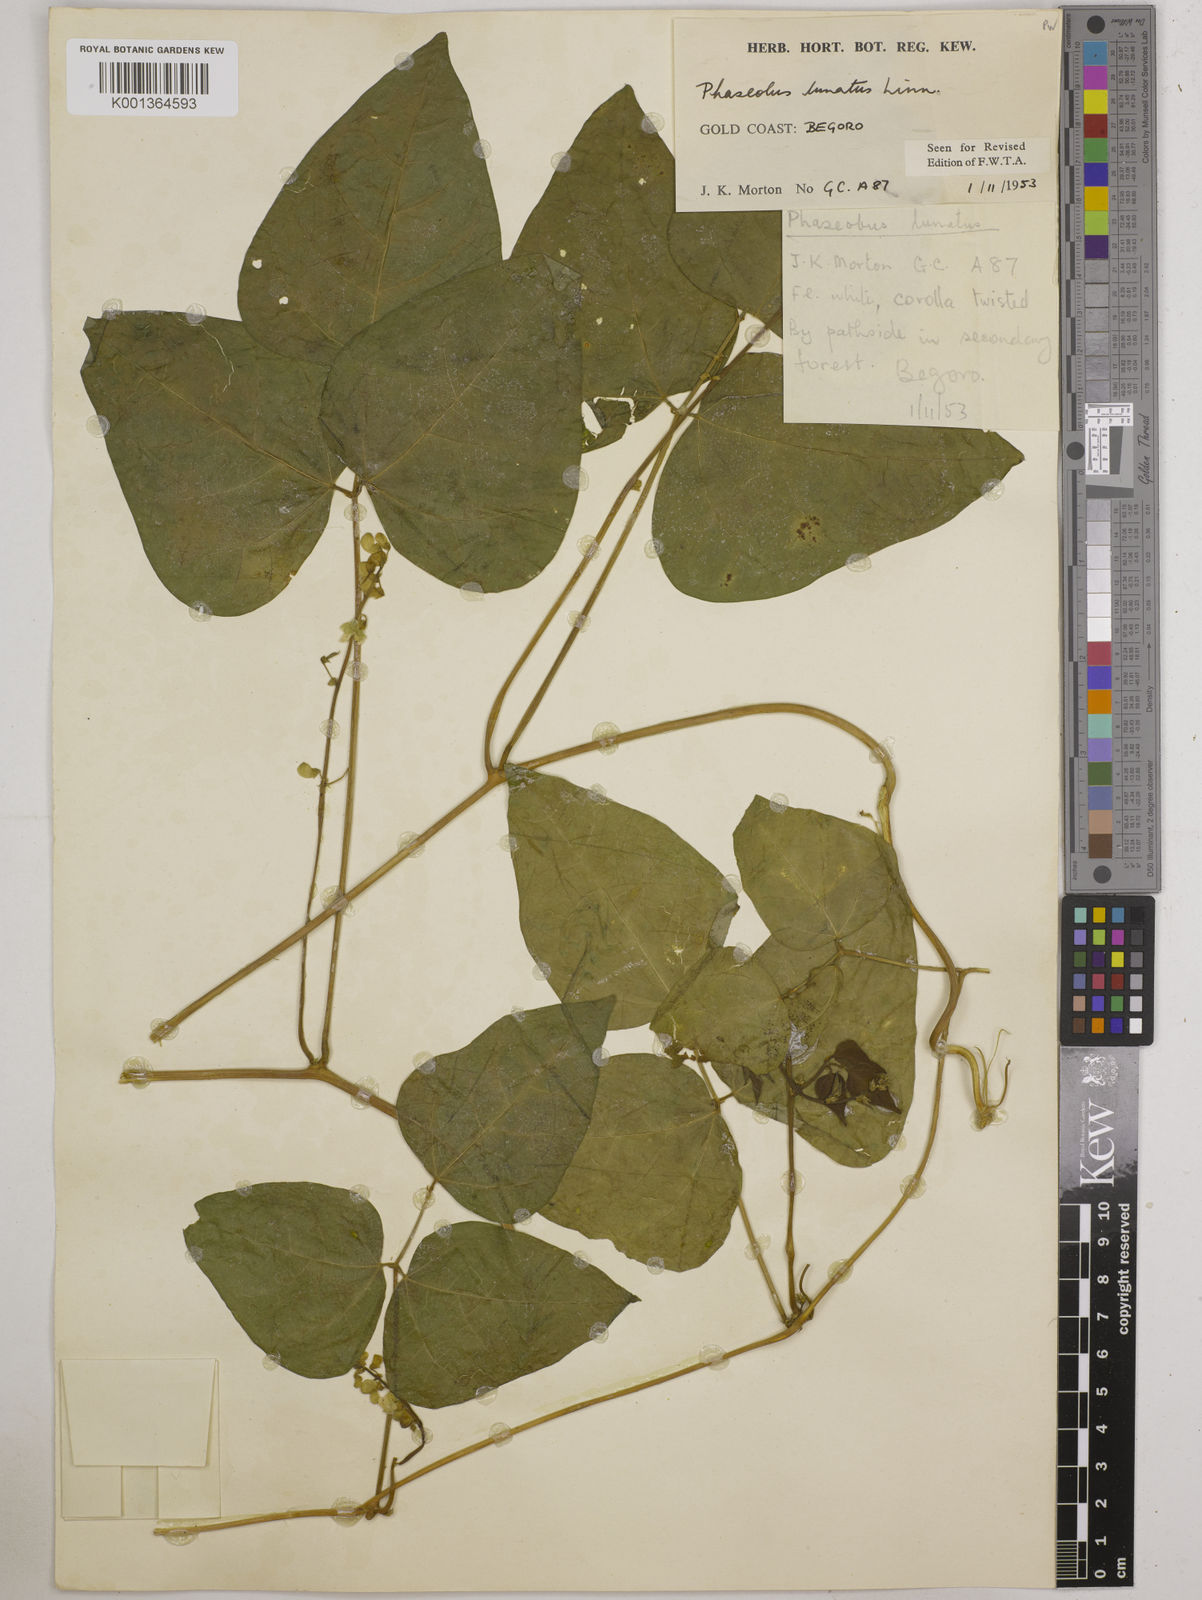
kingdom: Plantae
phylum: Tracheophyta
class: Magnoliopsida
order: Fabales
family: Fabaceae
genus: Phaseolus
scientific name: Phaseolus lunatus
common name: Sieva bean
